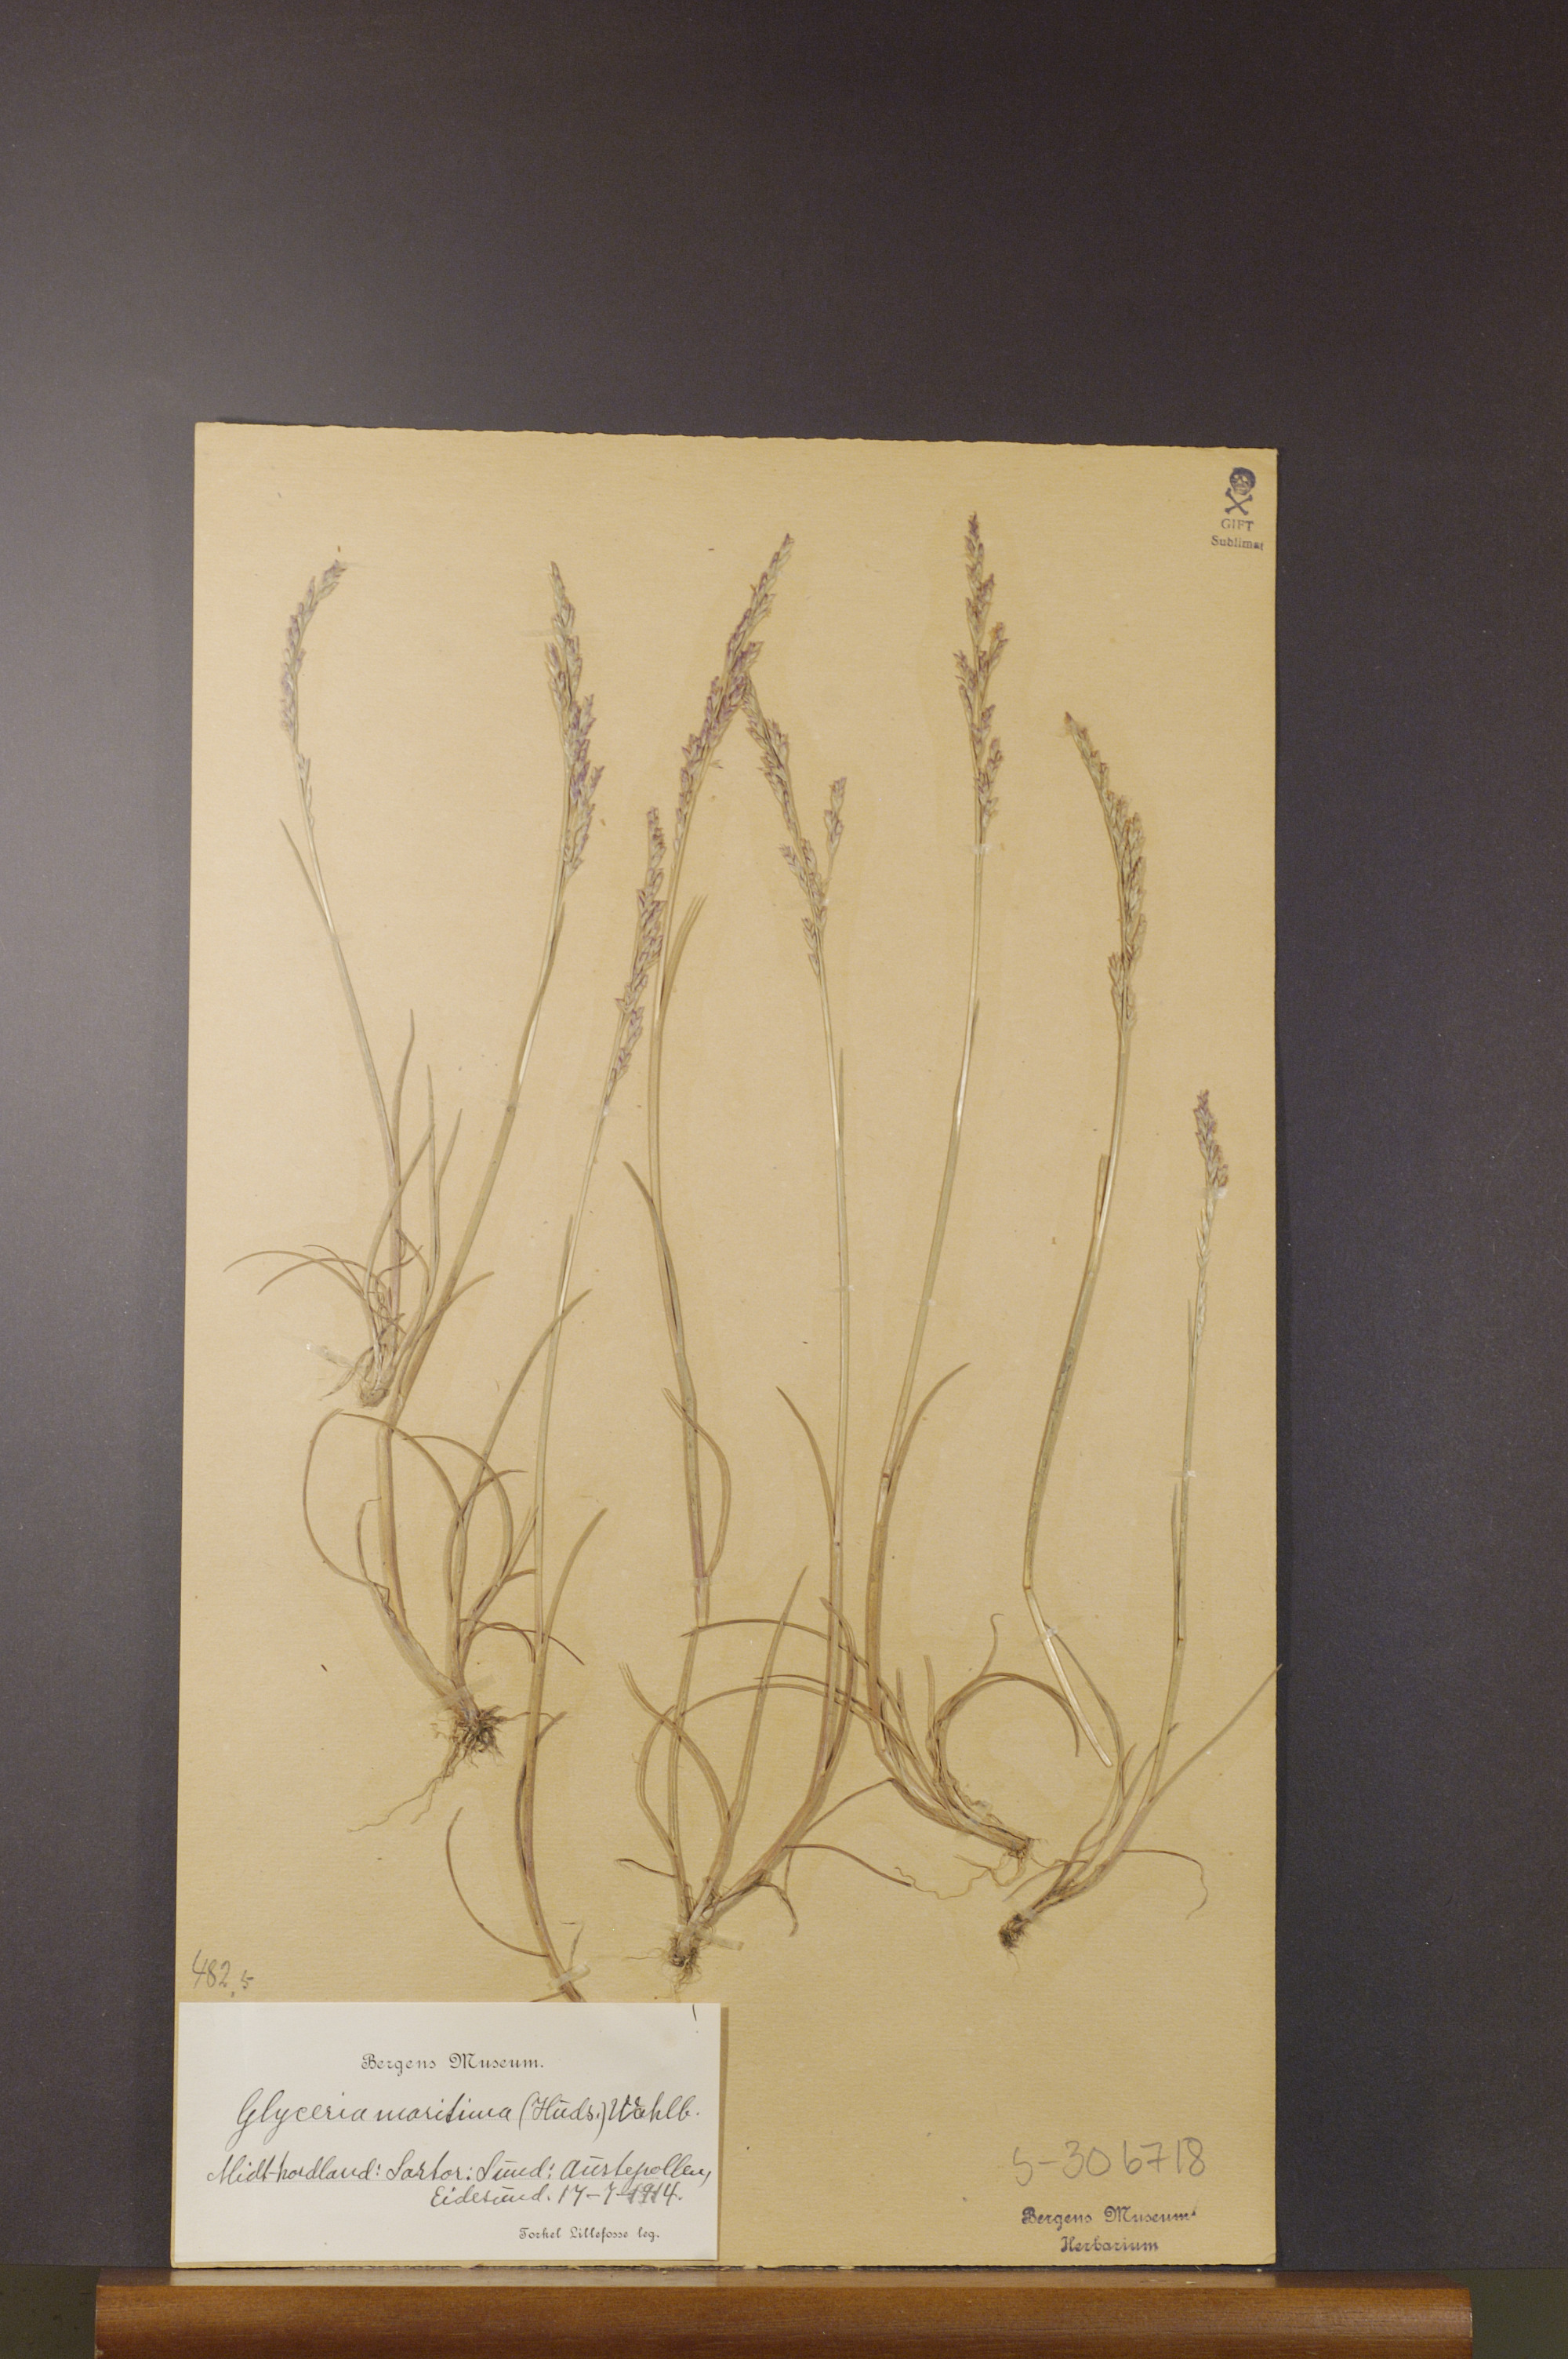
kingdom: Plantae
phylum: Tracheophyta
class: Liliopsida
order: Poales
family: Poaceae
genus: Puccinellia
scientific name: Puccinellia maritima
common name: Common saltmarsh grass
